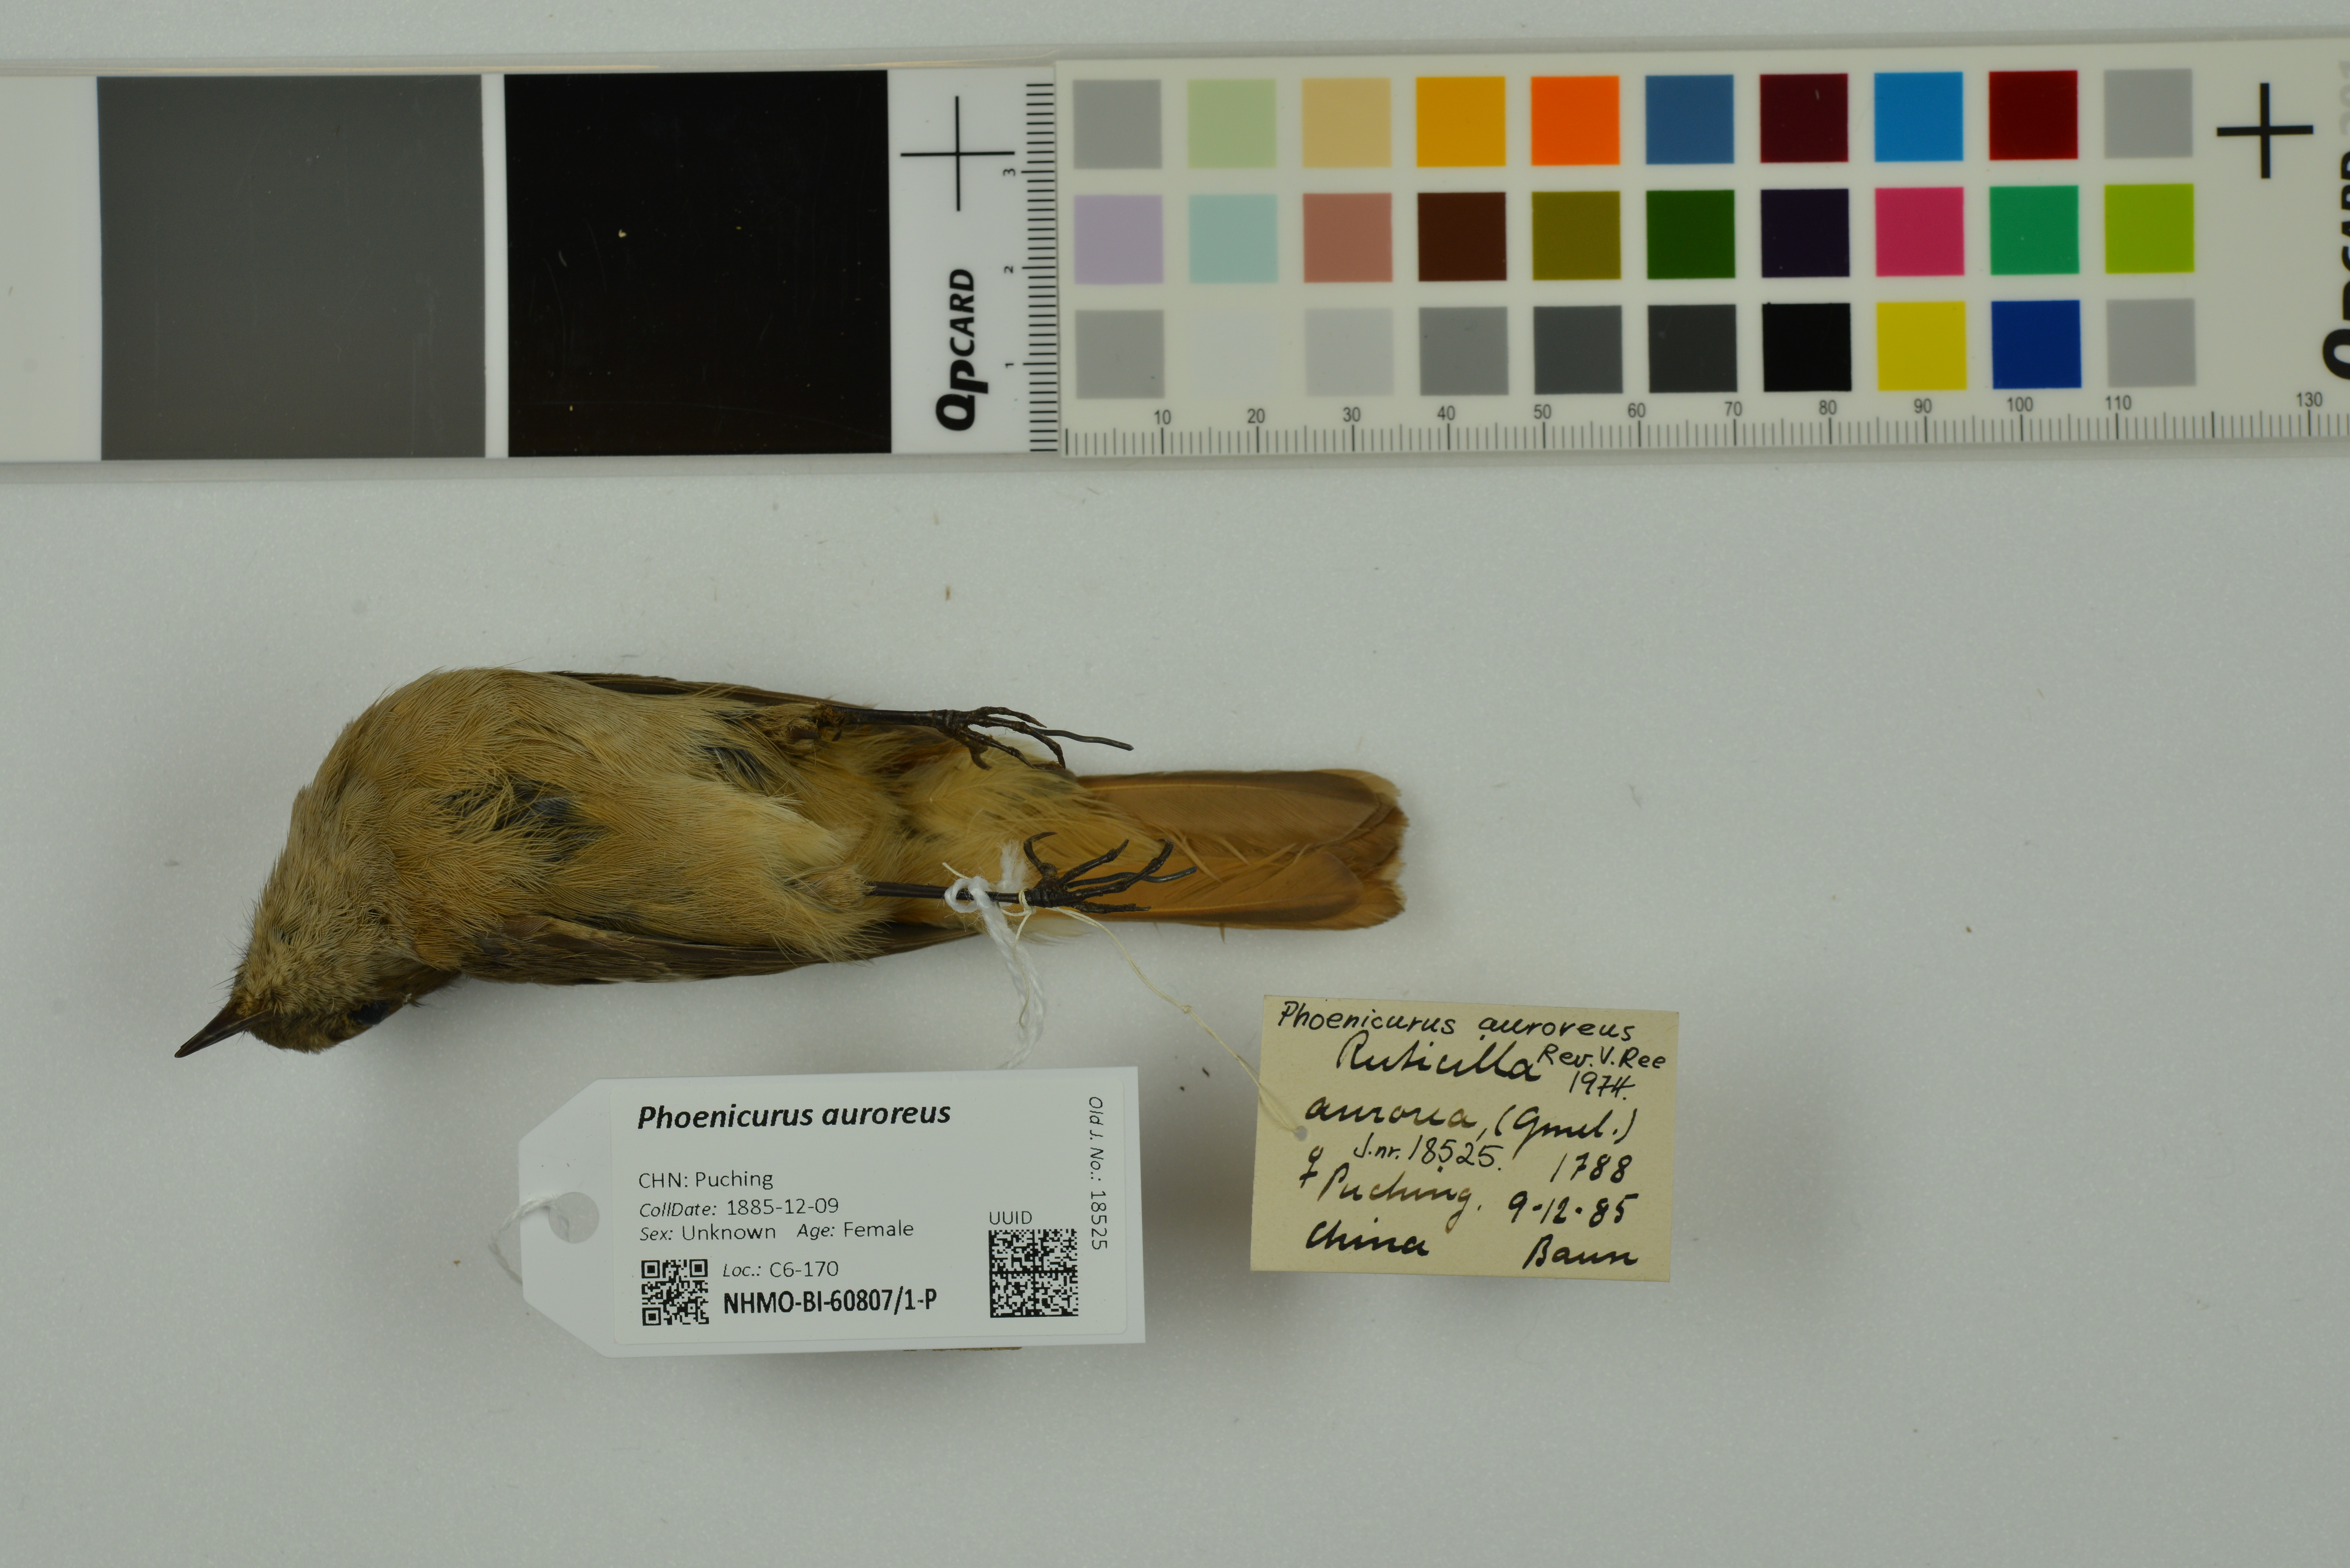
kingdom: Animalia
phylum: Chordata
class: Aves
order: Passeriformes
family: Muscicapidae
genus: Phoenicurus
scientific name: Phoenicurus auroreus
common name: Daurian redstart
